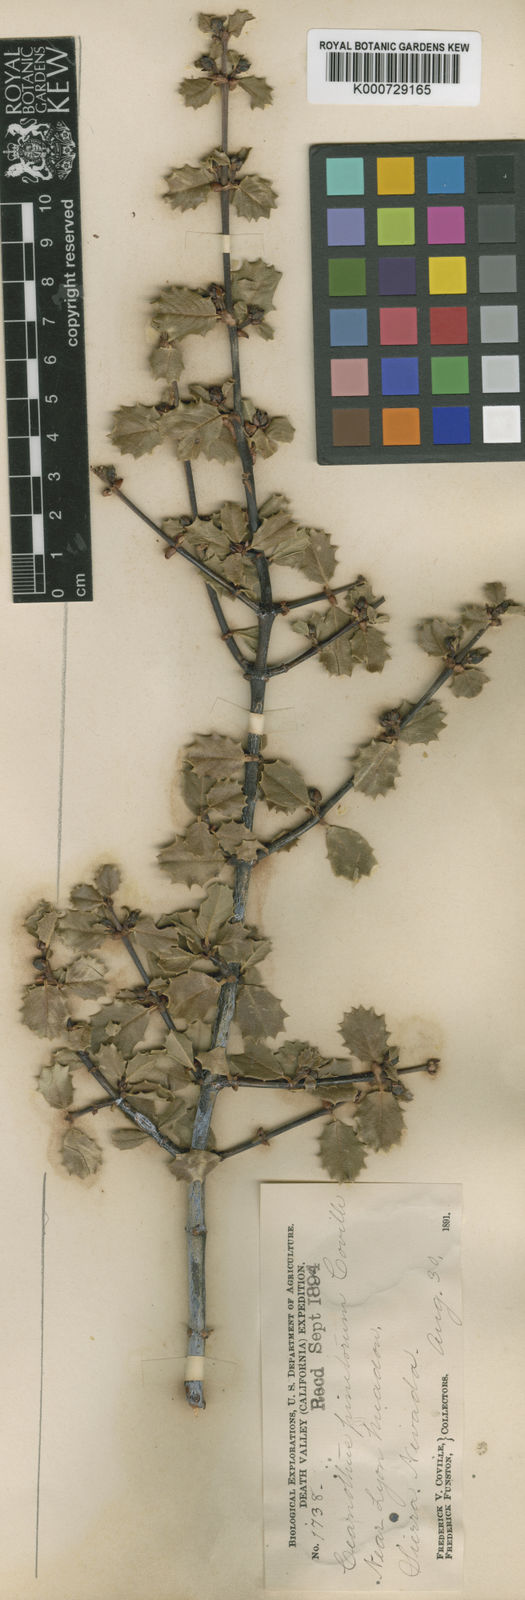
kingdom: Plantae
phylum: Tracheophyta
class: Magnoliopsida
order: Rosales
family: Rhamnaceae
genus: Ceanothus
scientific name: Ceanothus
